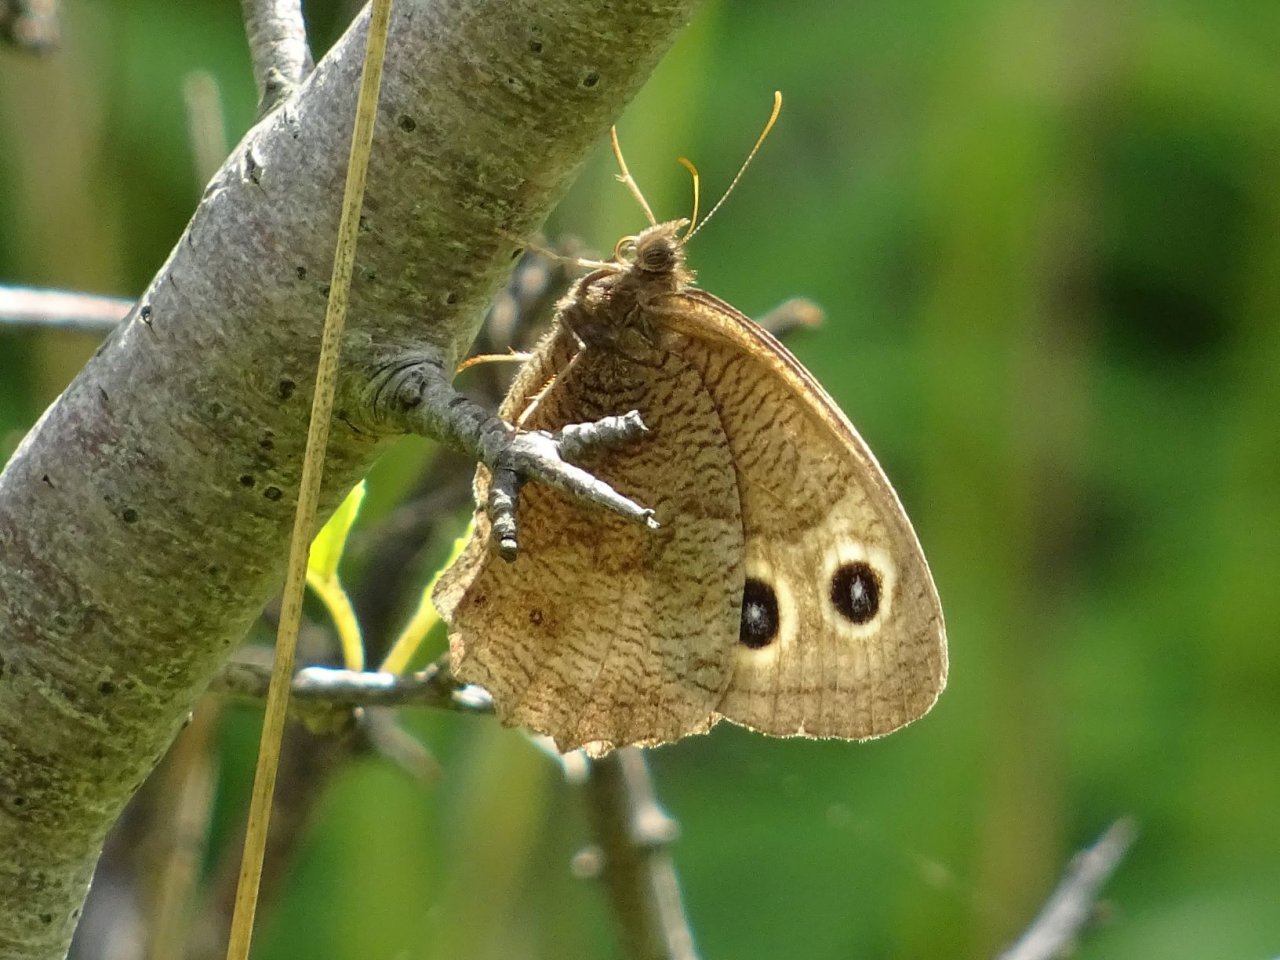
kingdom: Animalia
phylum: Arthropoda
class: Insecta
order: Lepidoptera
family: Nymphalidae
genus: Cercyonis
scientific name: Cercyonis pegala
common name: Common Wood-Nymph
